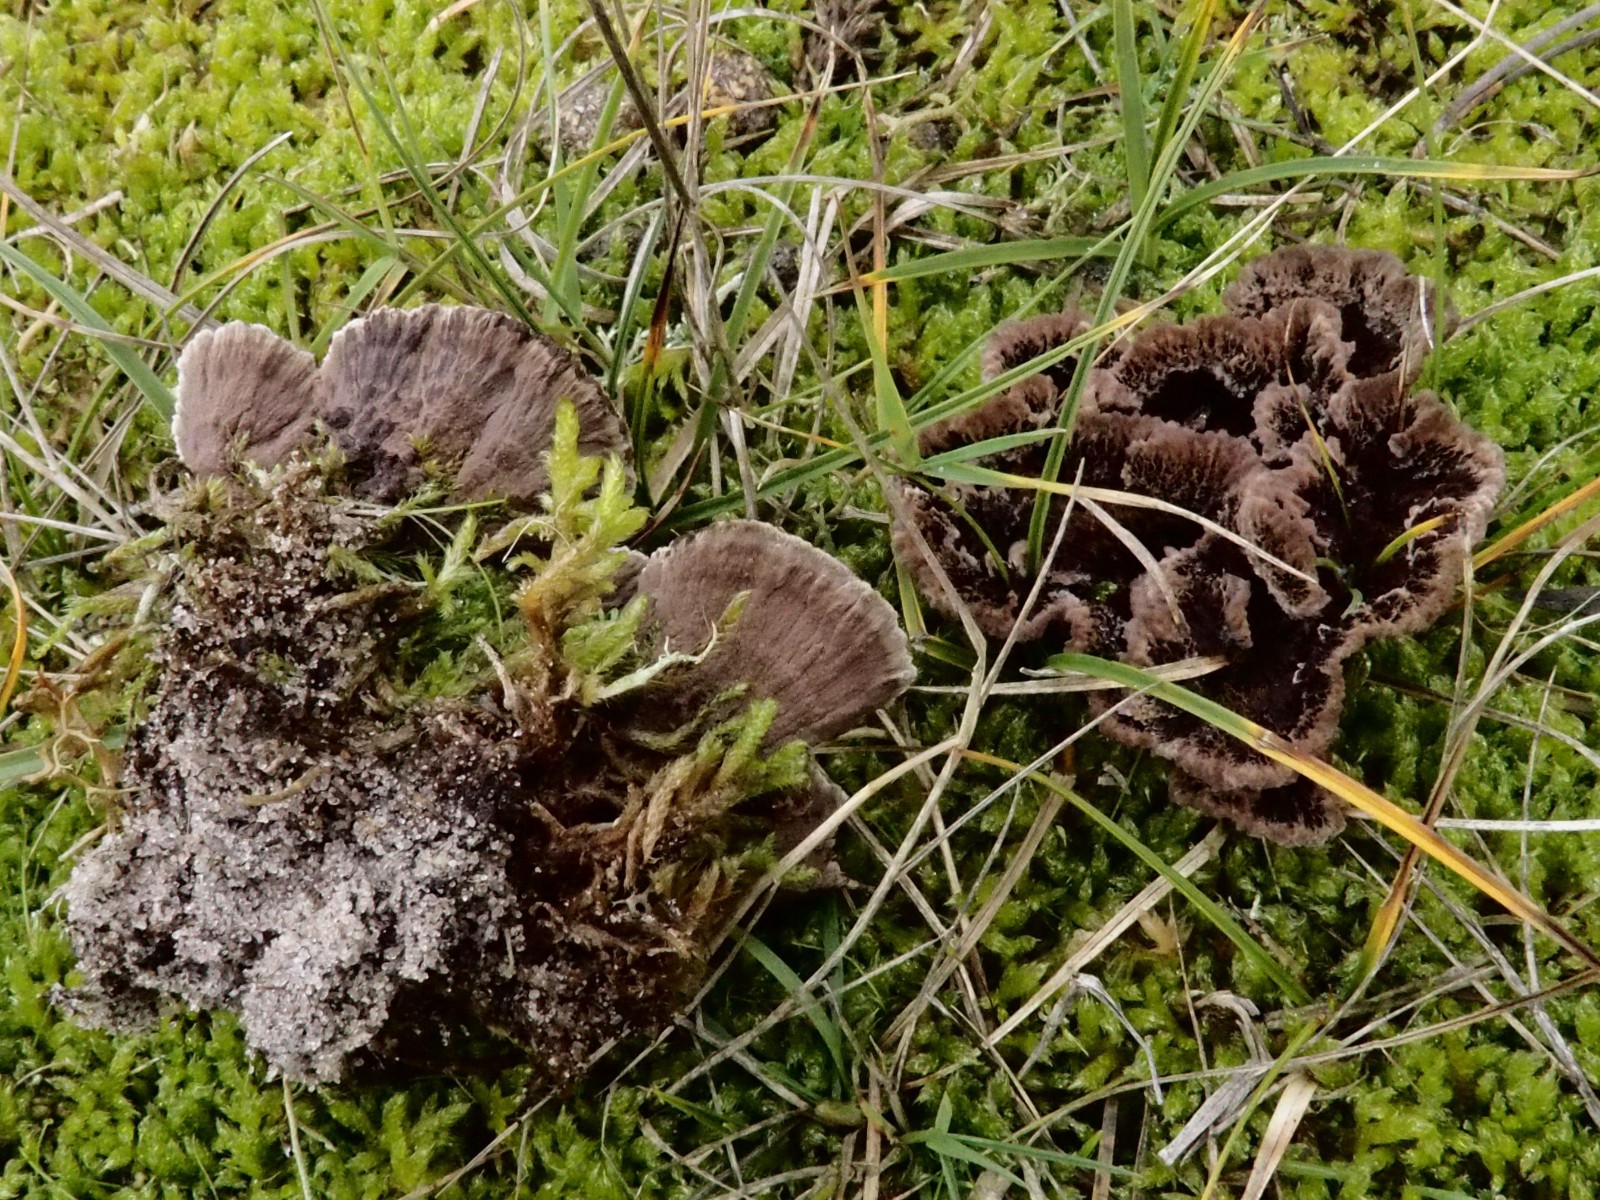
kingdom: Fungi
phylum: Basidiomycota
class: Agaricomycetes
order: Thelephorales
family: Thelephoraceae
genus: Thelephora
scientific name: Thelephora terrestris
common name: fliget frynsesvamp
